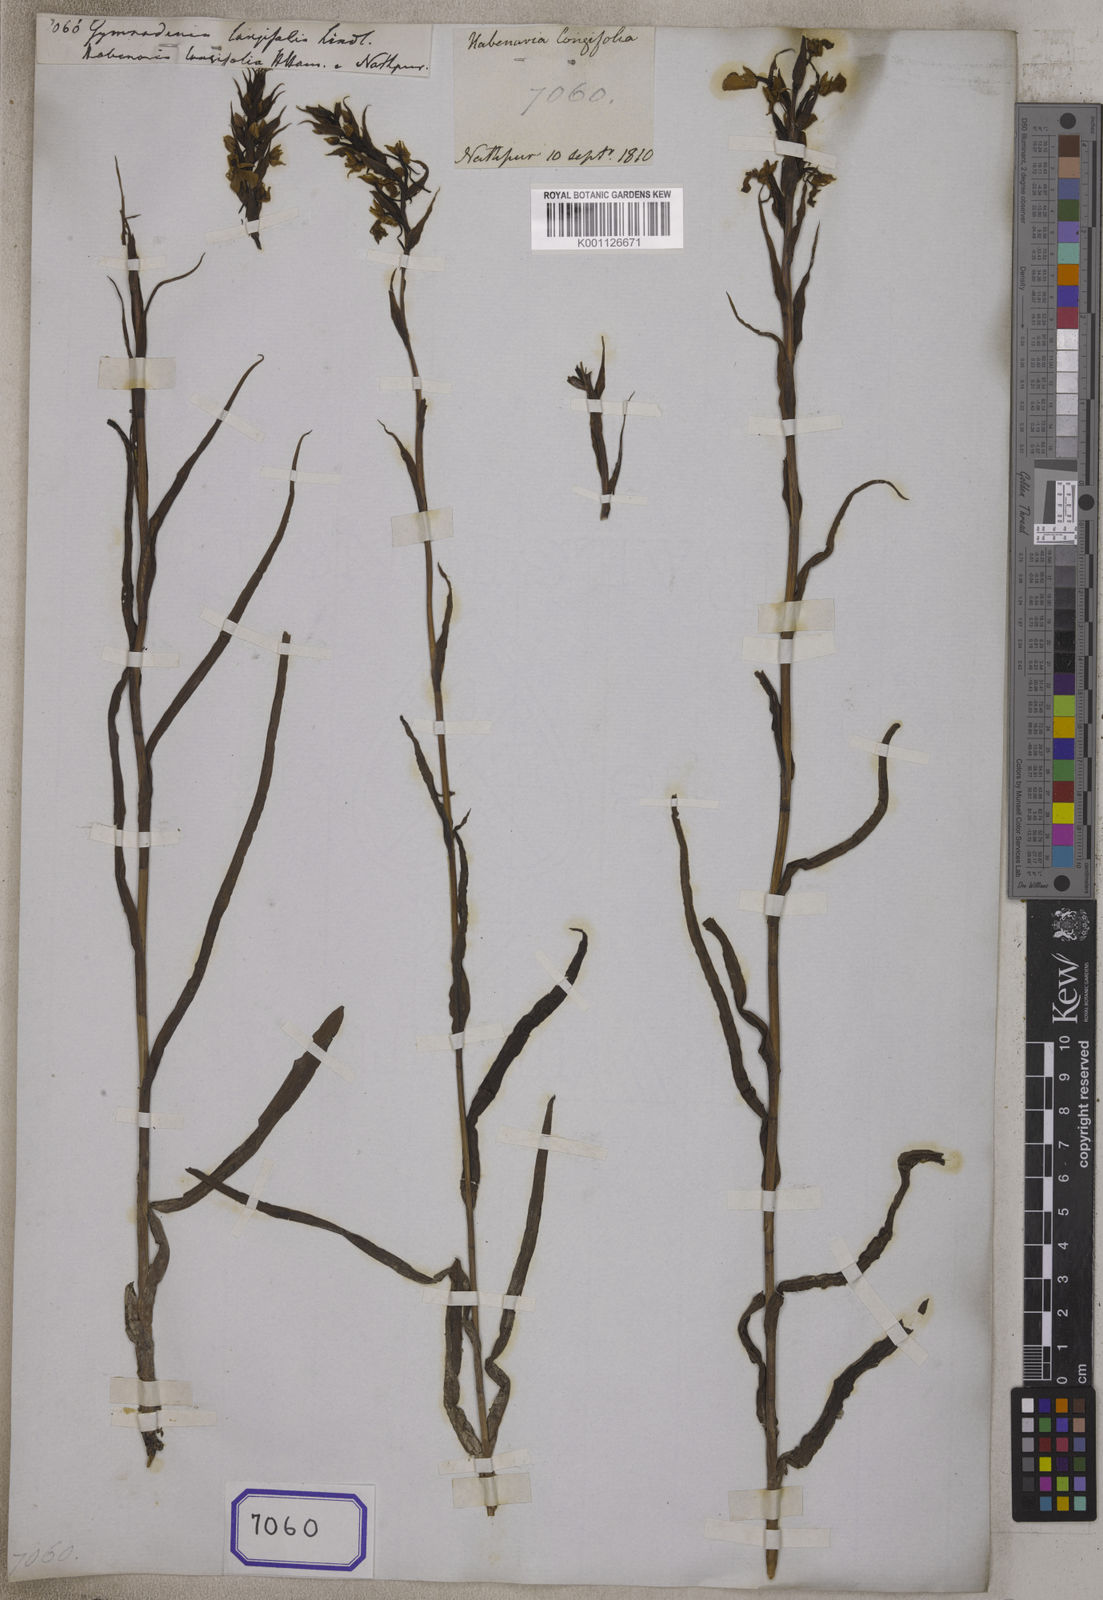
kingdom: Plantae
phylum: Tracheophyta
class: Liliopsida
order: Asparagales
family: Orchidaceae
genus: Gymnadenia
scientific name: Gymnadenia
